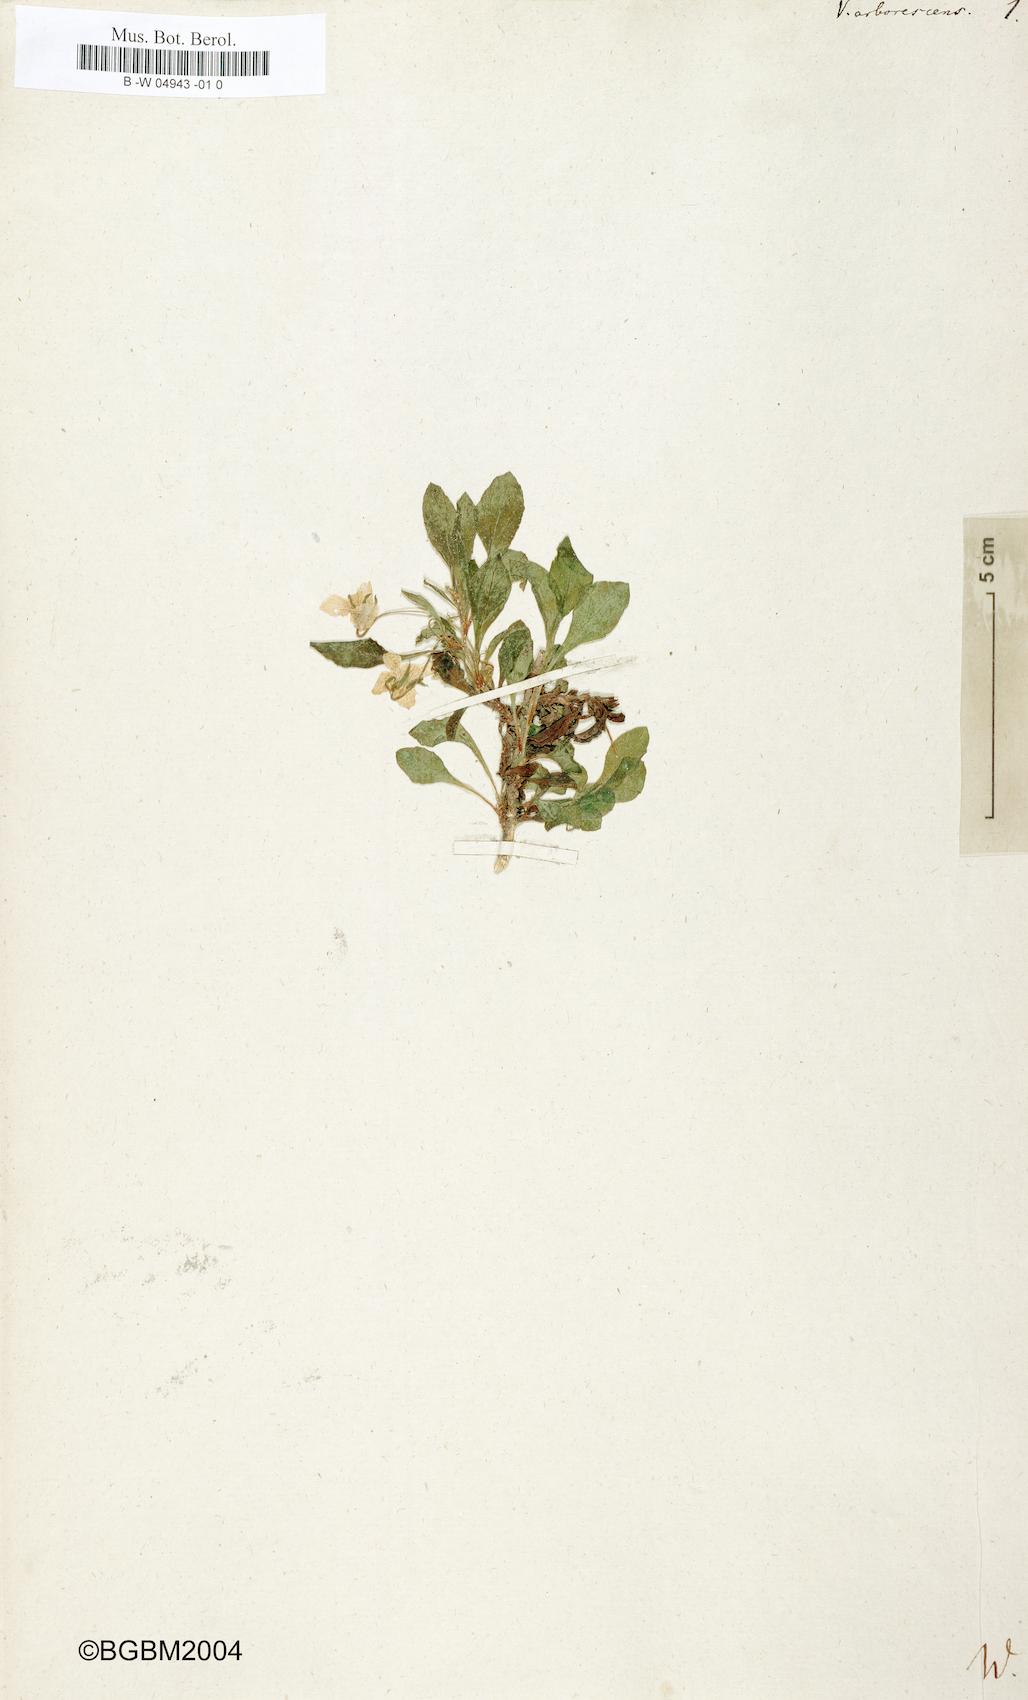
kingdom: Plantae
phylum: Tracheophyta
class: Magnoliopsida
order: Malpighiales
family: Violaceae
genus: Viola
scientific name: Viola arborescens
